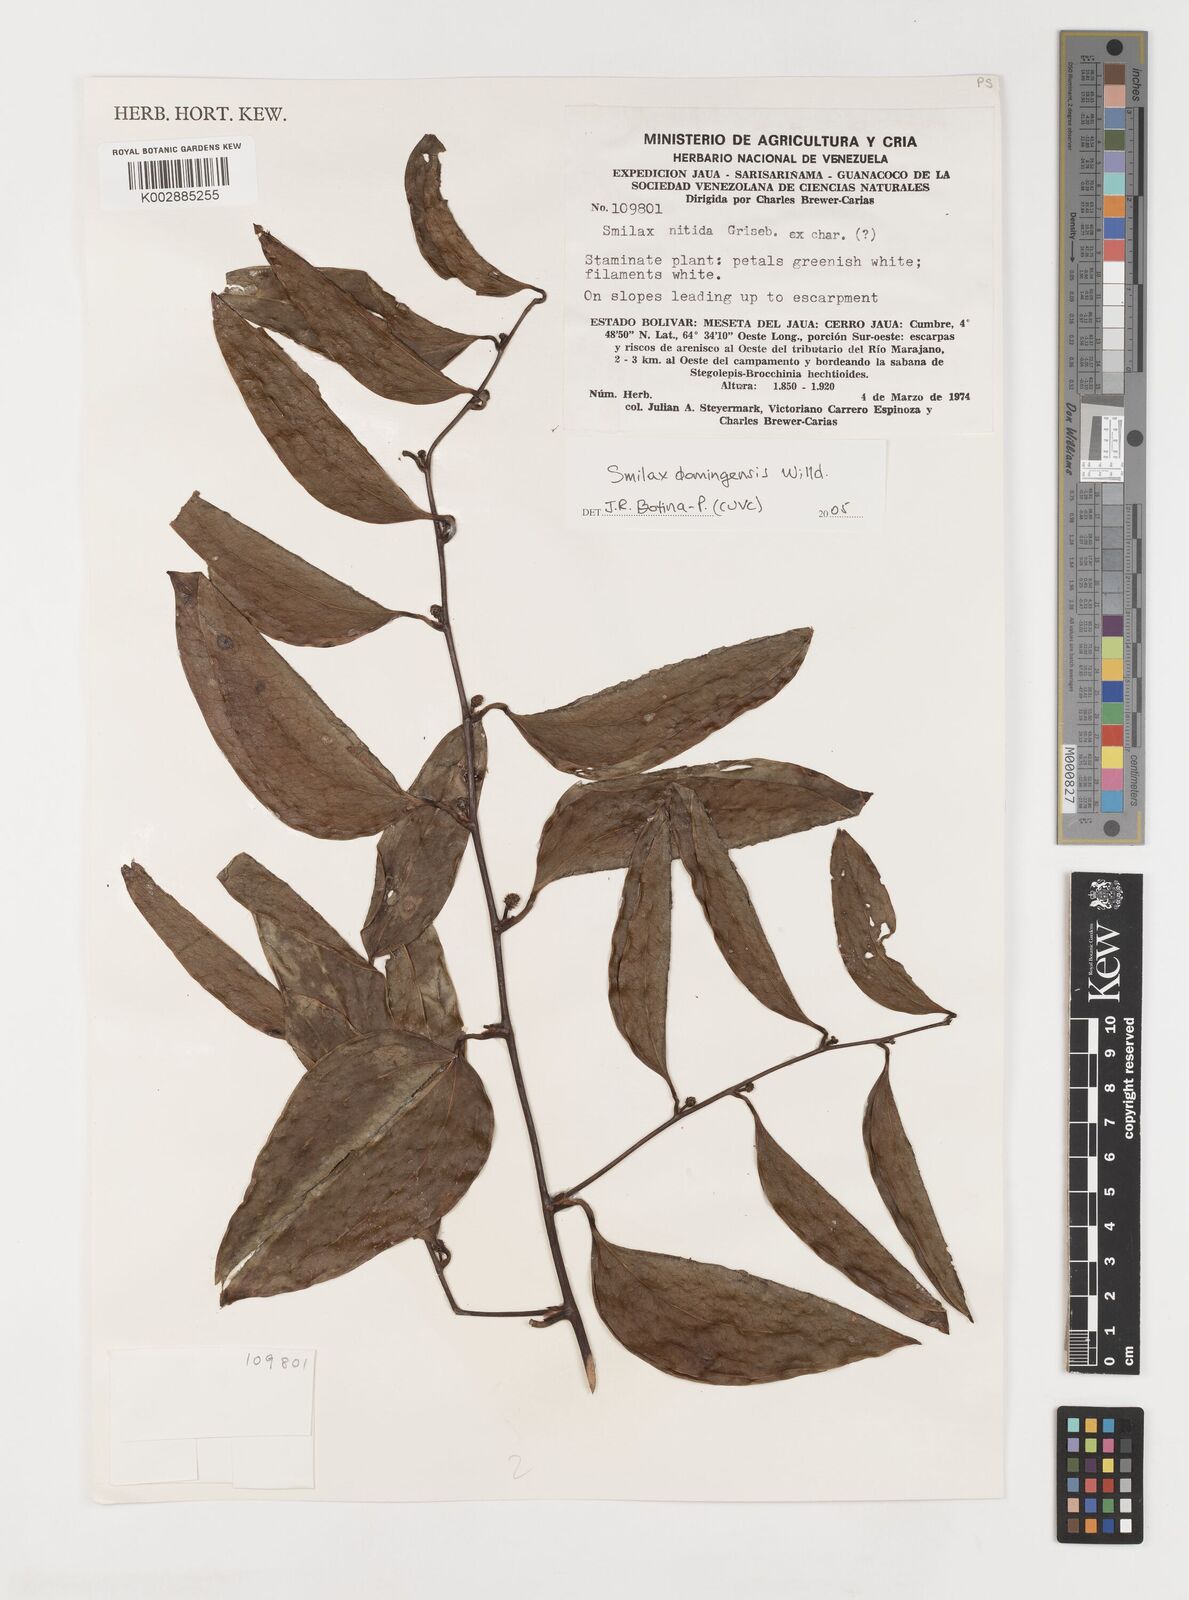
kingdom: Plantae
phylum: Tracheophyta
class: Liliopsida
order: Liliales
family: Smilacaceae
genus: Smilax
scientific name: Smilax domingensis
